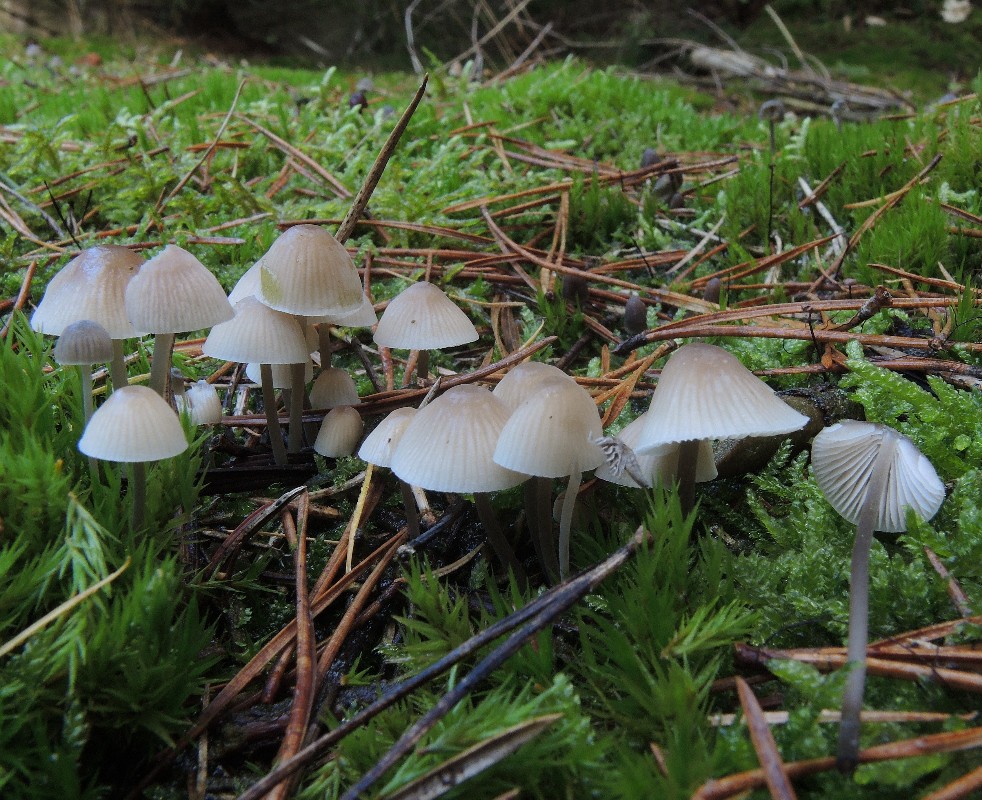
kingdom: Fungi
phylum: Basidiomycota
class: Agaricomycetes
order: Agaricales
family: Mycenaceae
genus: Mycena
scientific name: Mycena metata
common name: rødlig huesvamp
